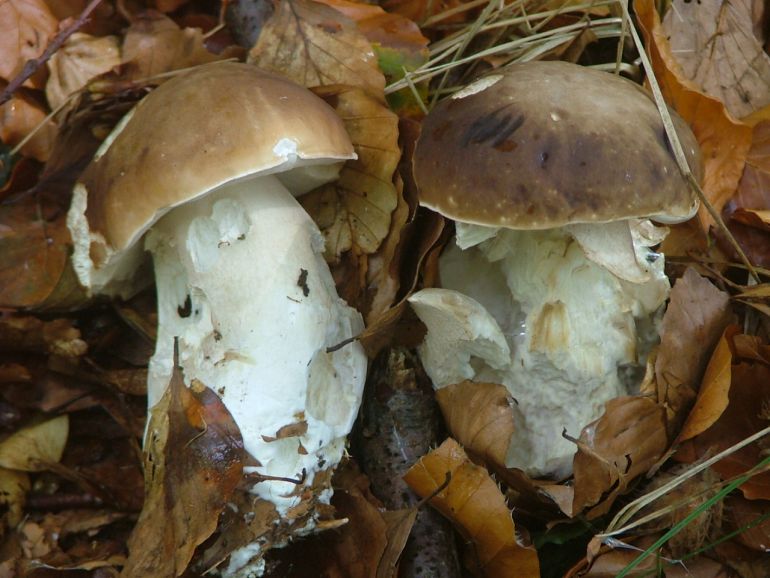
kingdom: Fungi
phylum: Basidiomycota
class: Agaricomycetes
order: Boletales
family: Boletaceae
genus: Boletus
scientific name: Boletus edulis
